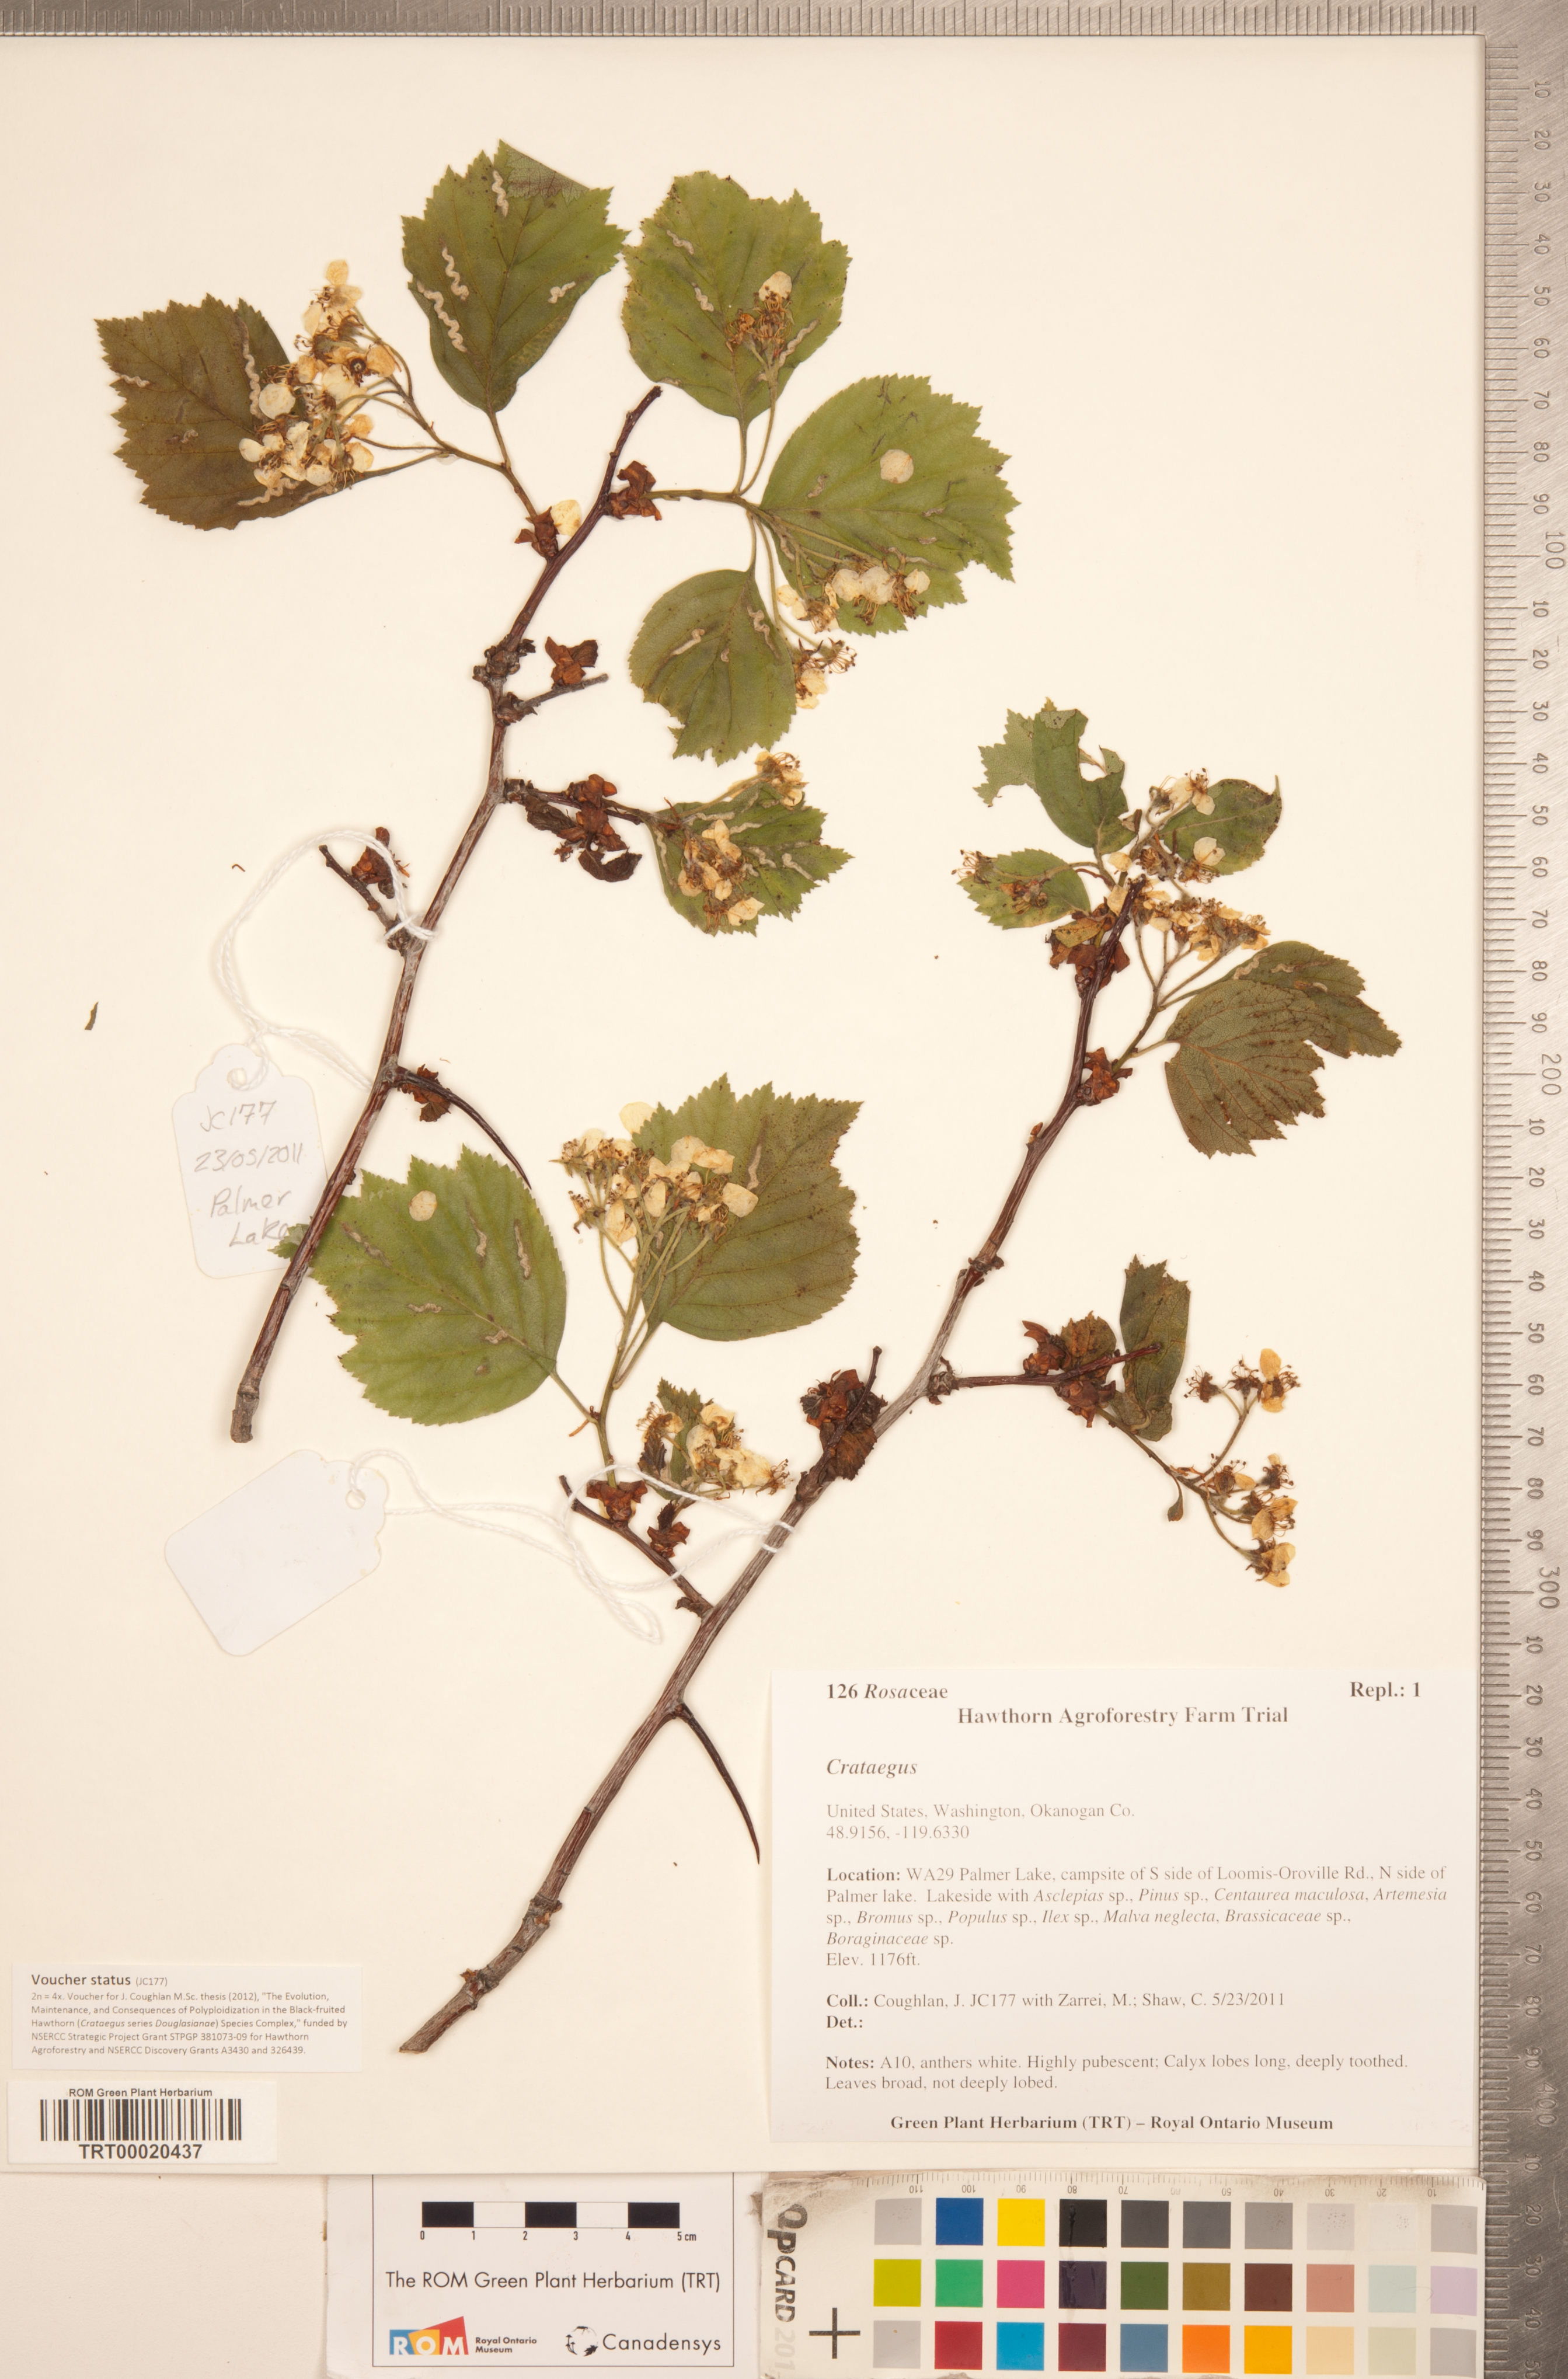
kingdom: Plantae
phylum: Tracheophyta
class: Magnoliopsida
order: Rosales
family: Rosaceae
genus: Crataegus
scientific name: Crataegus macracantha
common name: Large-thorn hawthorn
